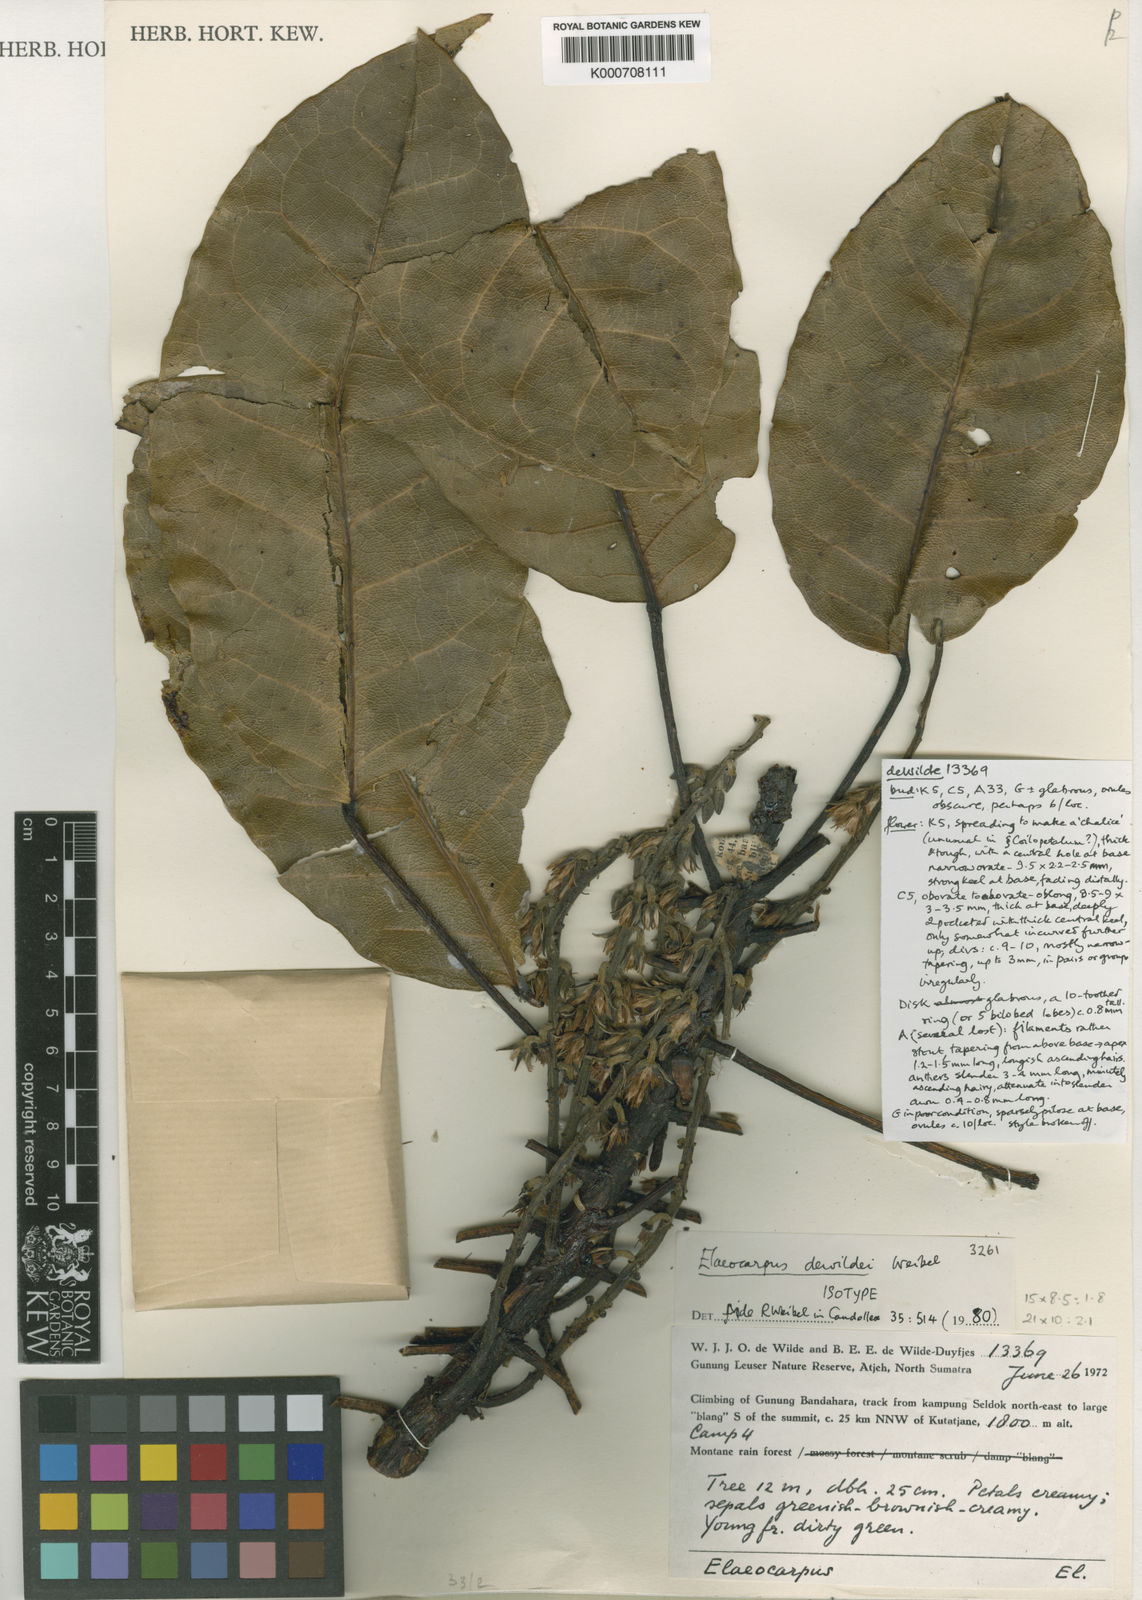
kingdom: Plantae
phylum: Tracheophyta
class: Magnoliopsida
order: Oxalidales
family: Elaeocarpaceae
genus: Elaeocarpus
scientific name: Elaeocarpus dewildei
